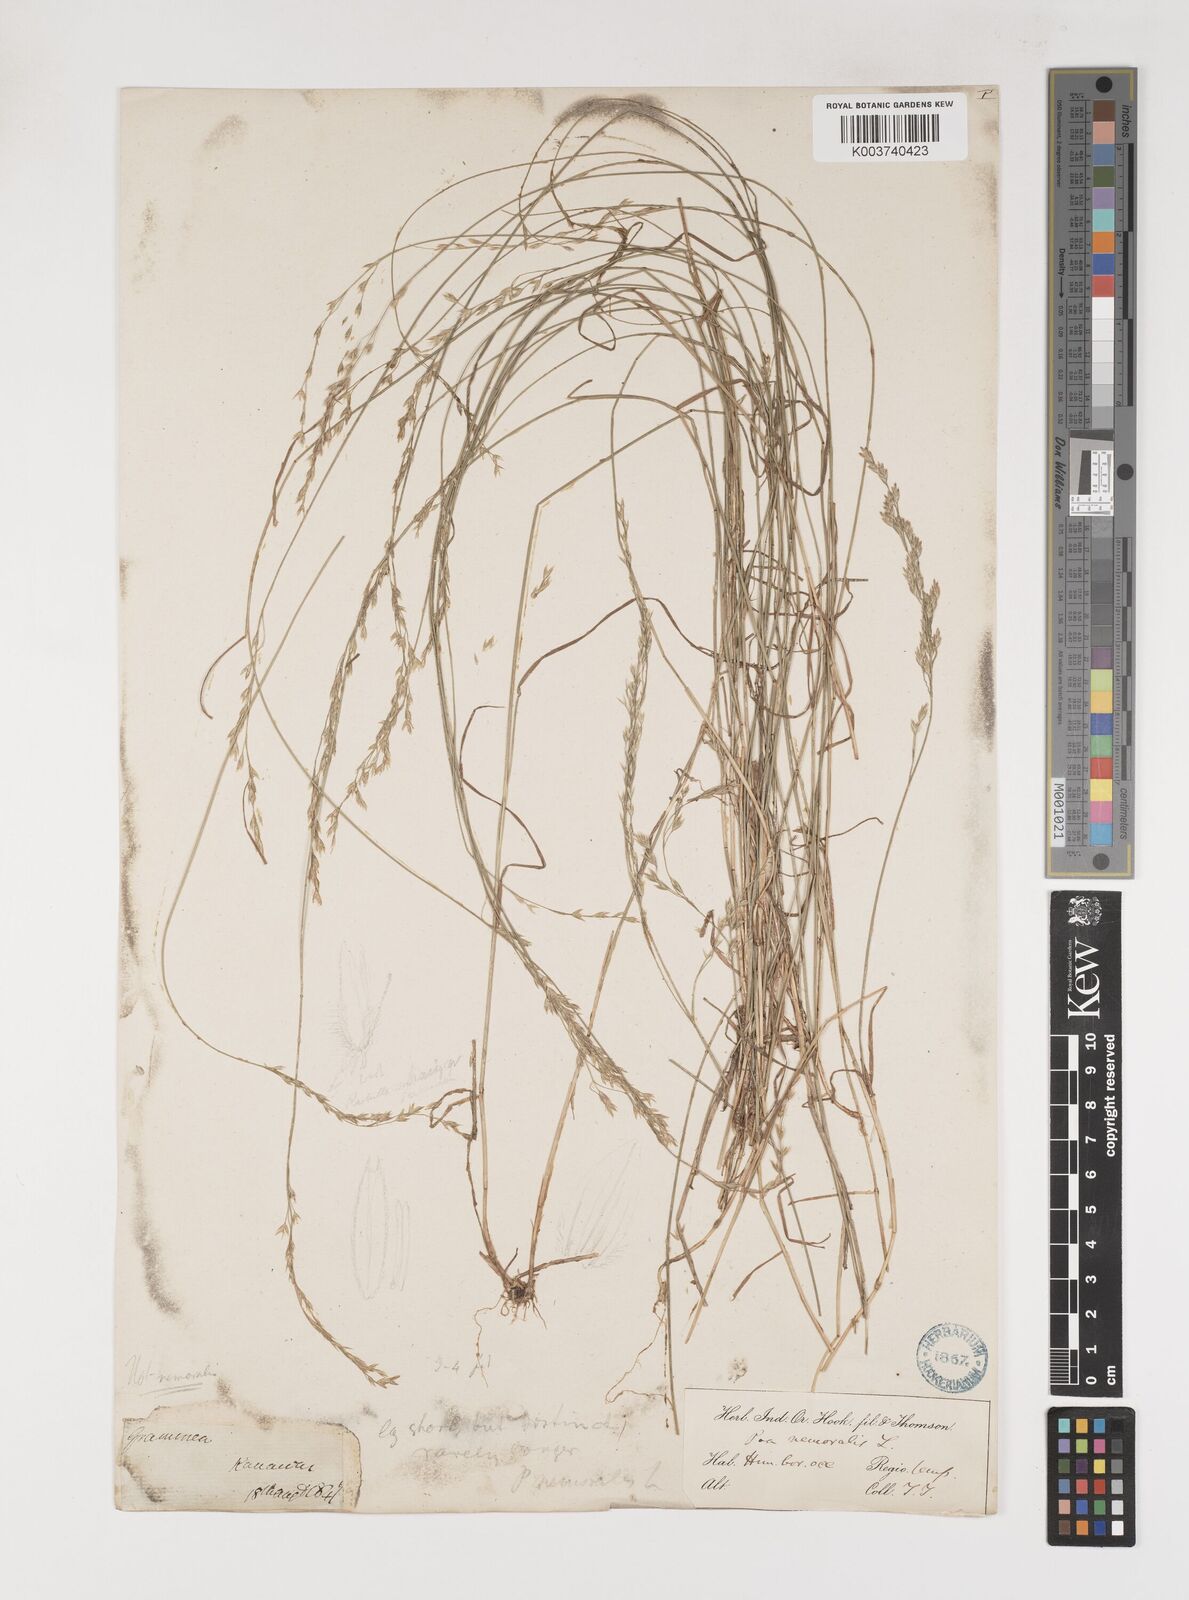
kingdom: Plantae
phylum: Tracheophyta
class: Liliopsida
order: Poales
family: Poaceae
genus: Poa
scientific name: Poa nemoralis
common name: Wood bluegrass
